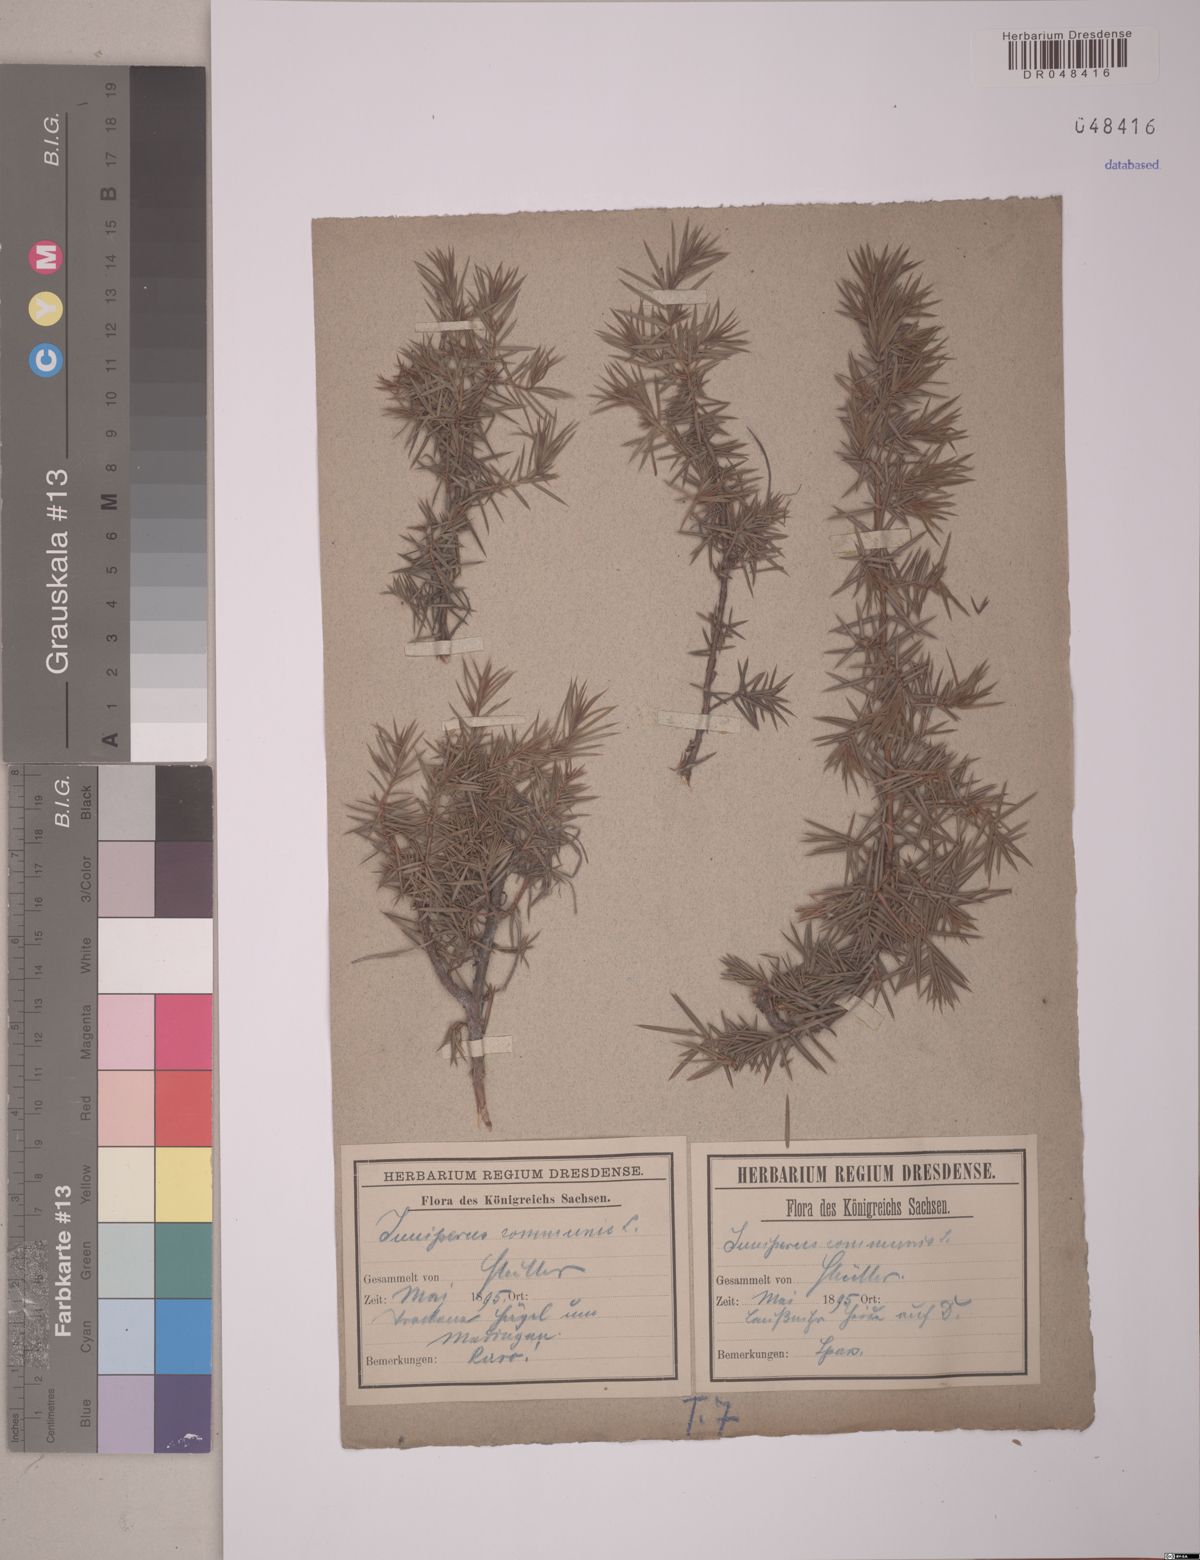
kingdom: Plantae
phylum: Tracheophyta
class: Pinopsida
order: Pinales
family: Cupressaceae
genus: Juniperus
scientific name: Juniperus communis
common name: Common juniper
